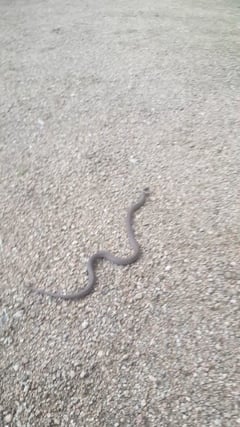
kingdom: Animalia
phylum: Chordata
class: Squamata
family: Colubridae
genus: Coronella
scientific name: Coronella austriaca
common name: Smooth snake
